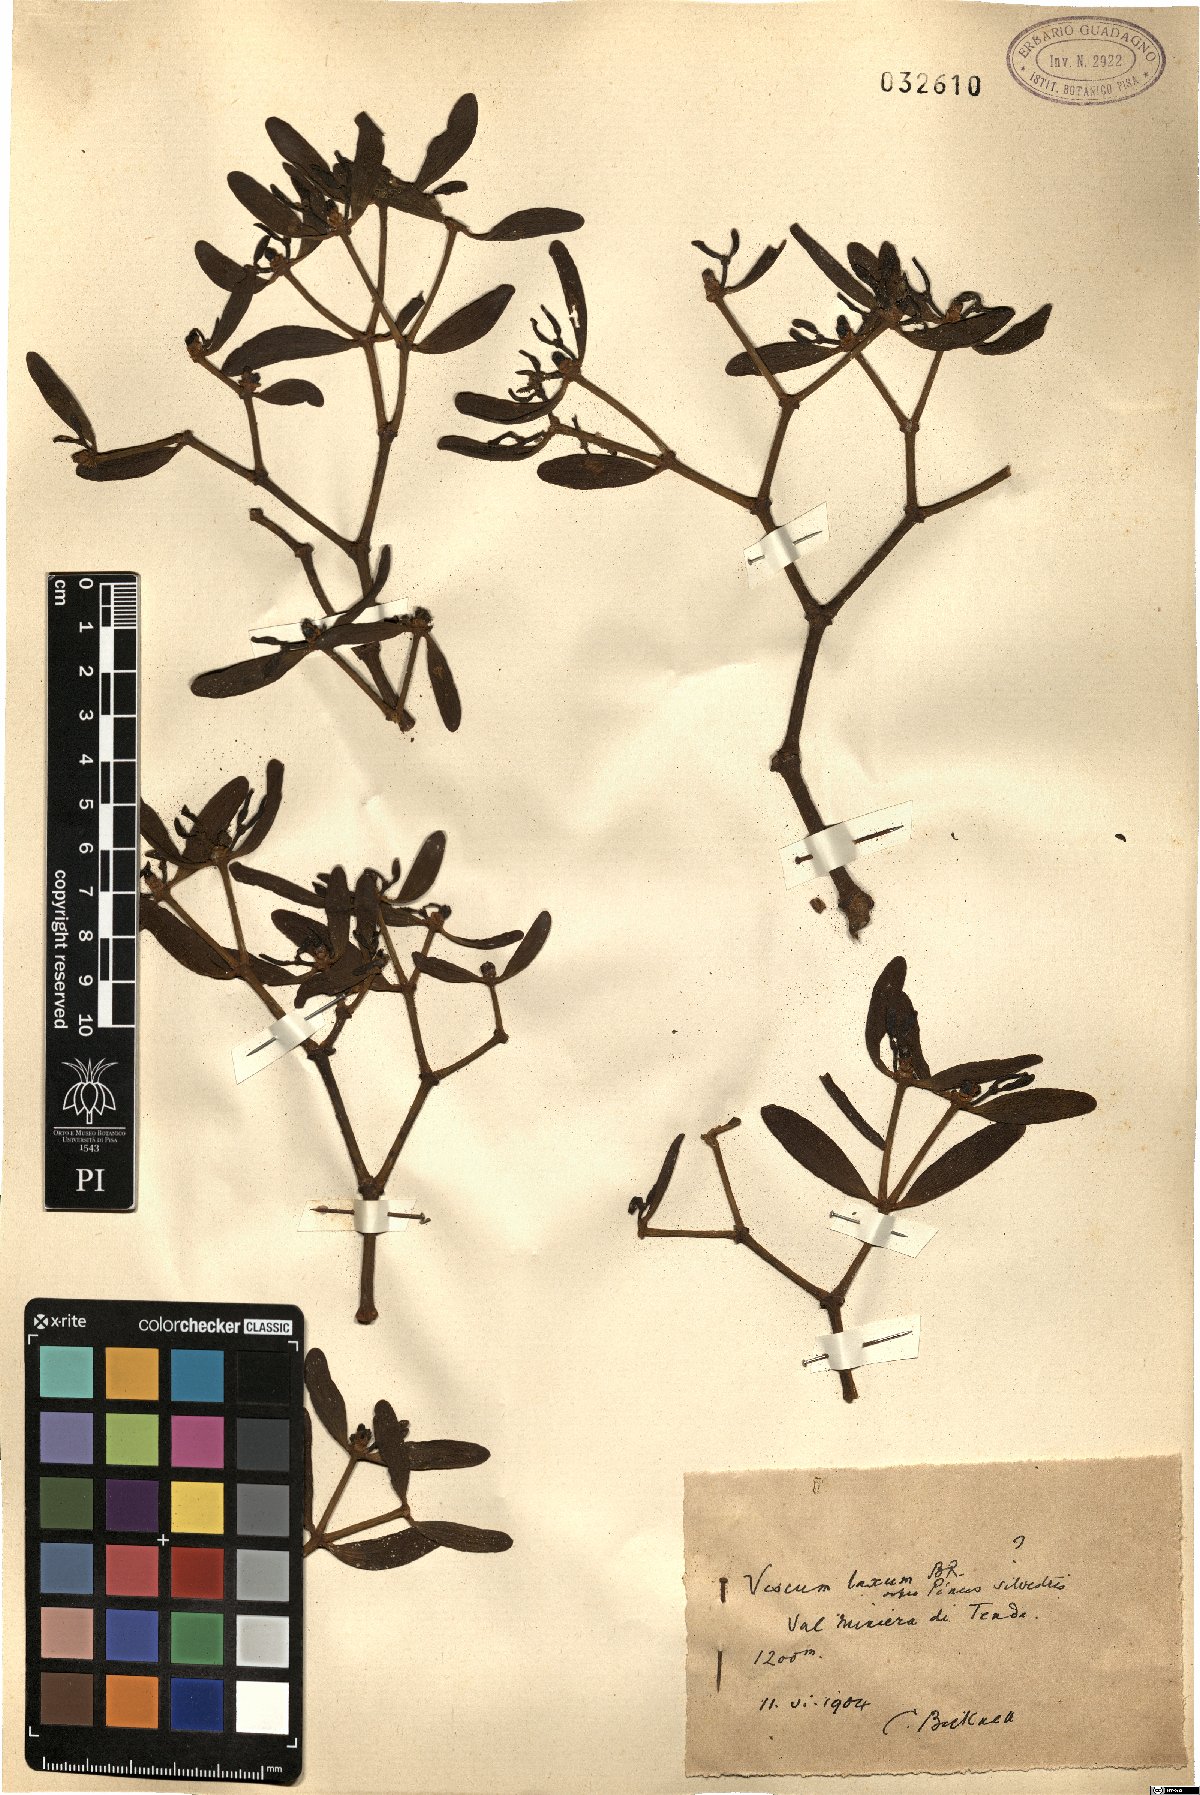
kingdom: Plantae
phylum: Tracheophyta
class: Magnoliopsida
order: Santalales
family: Viscaceae
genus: Viscum
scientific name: Viscum laxum
